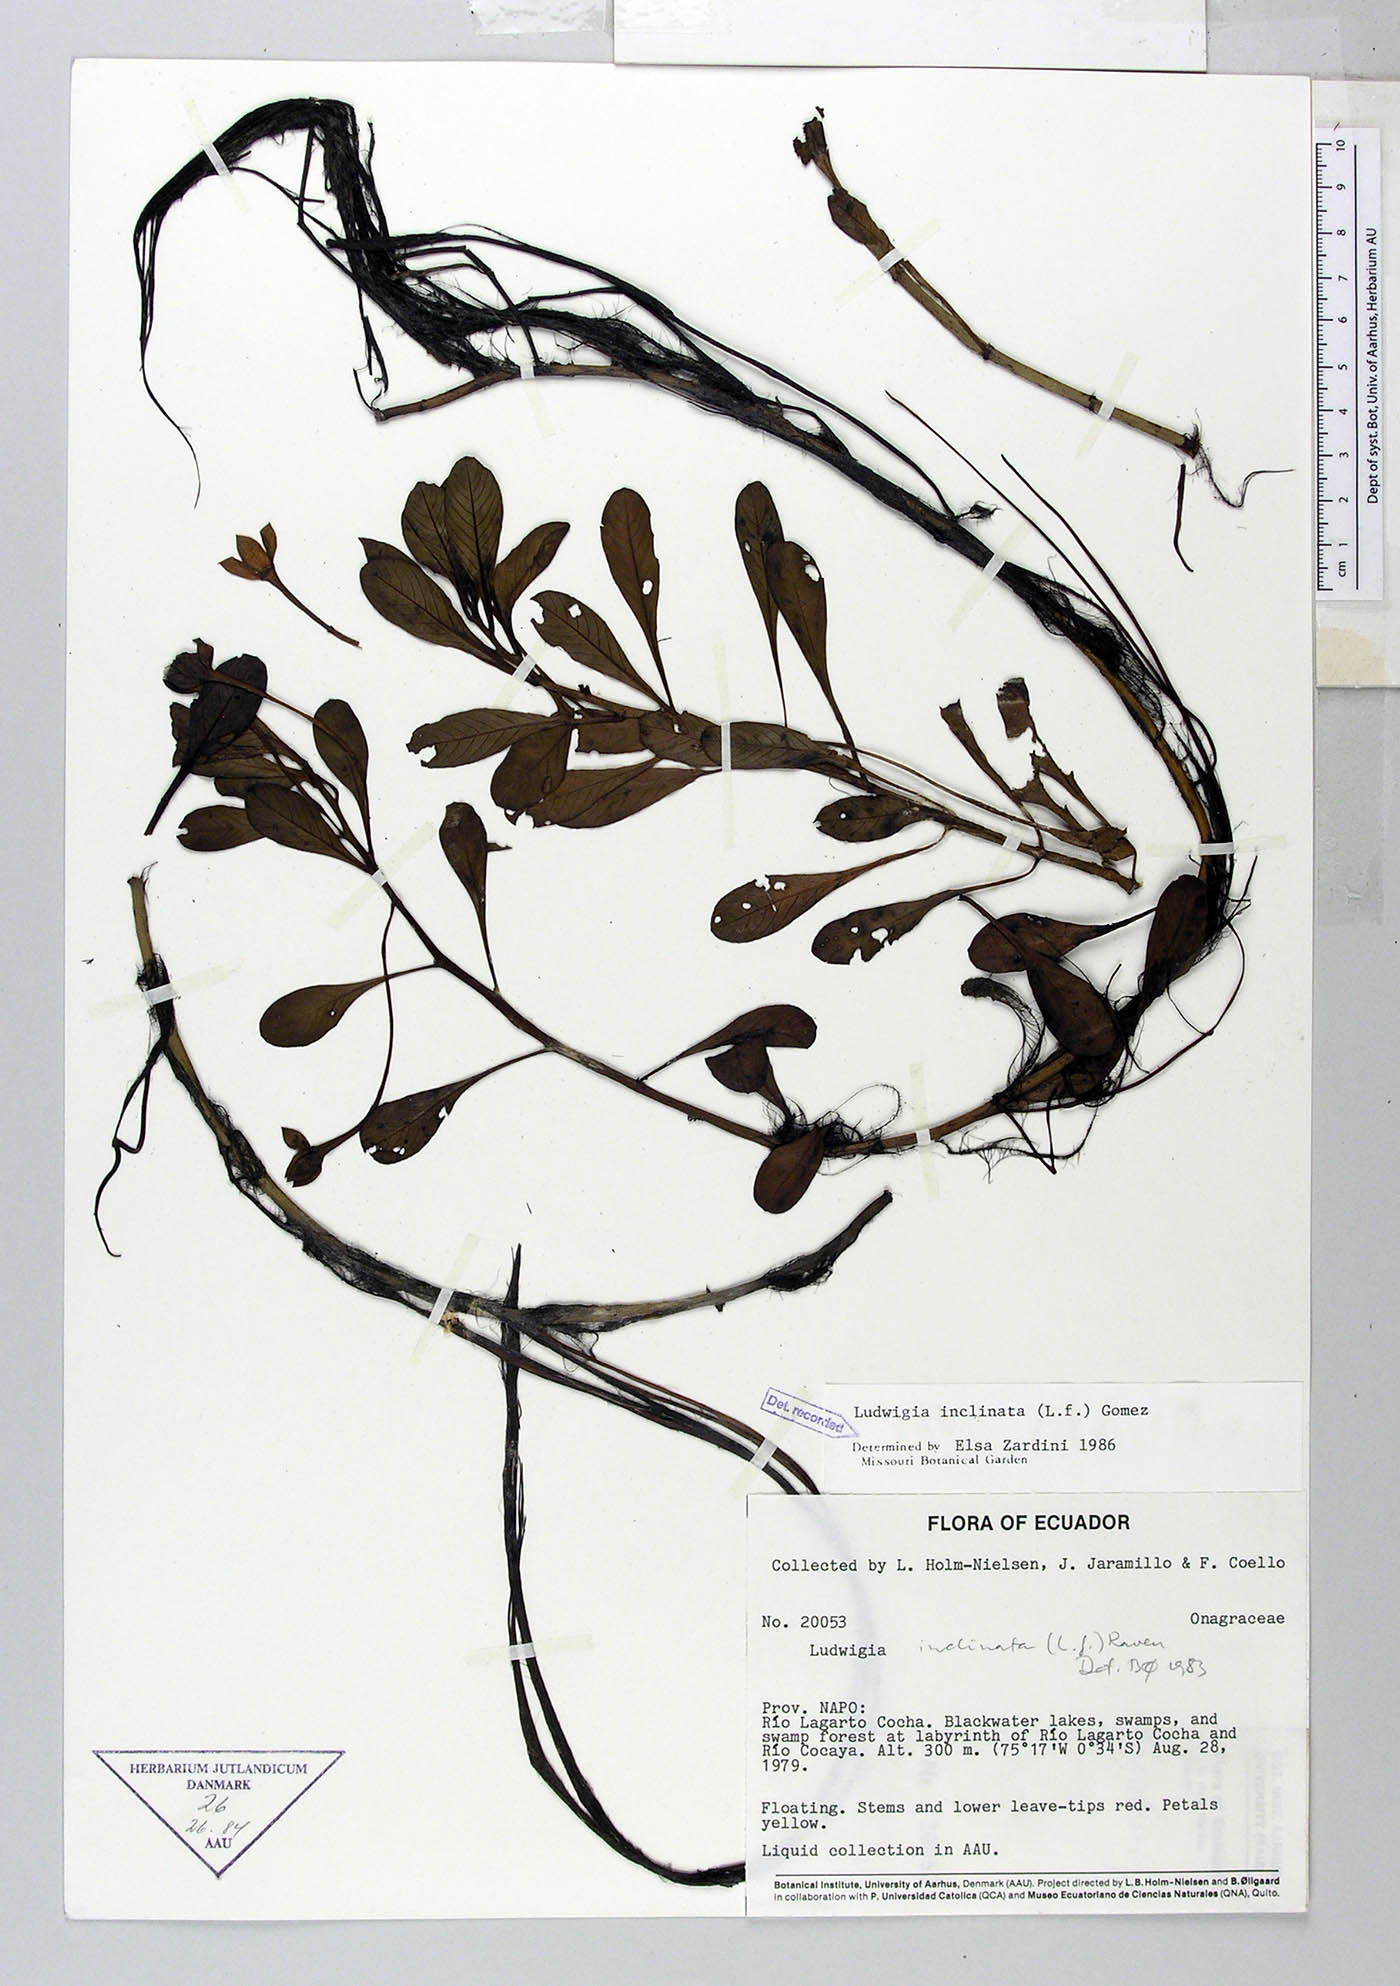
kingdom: Plantae
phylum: Tracheophyta
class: Magnoliopsida
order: Myrtales
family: Onagraceae
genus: Ludwigia
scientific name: Ludwigia inclinata
